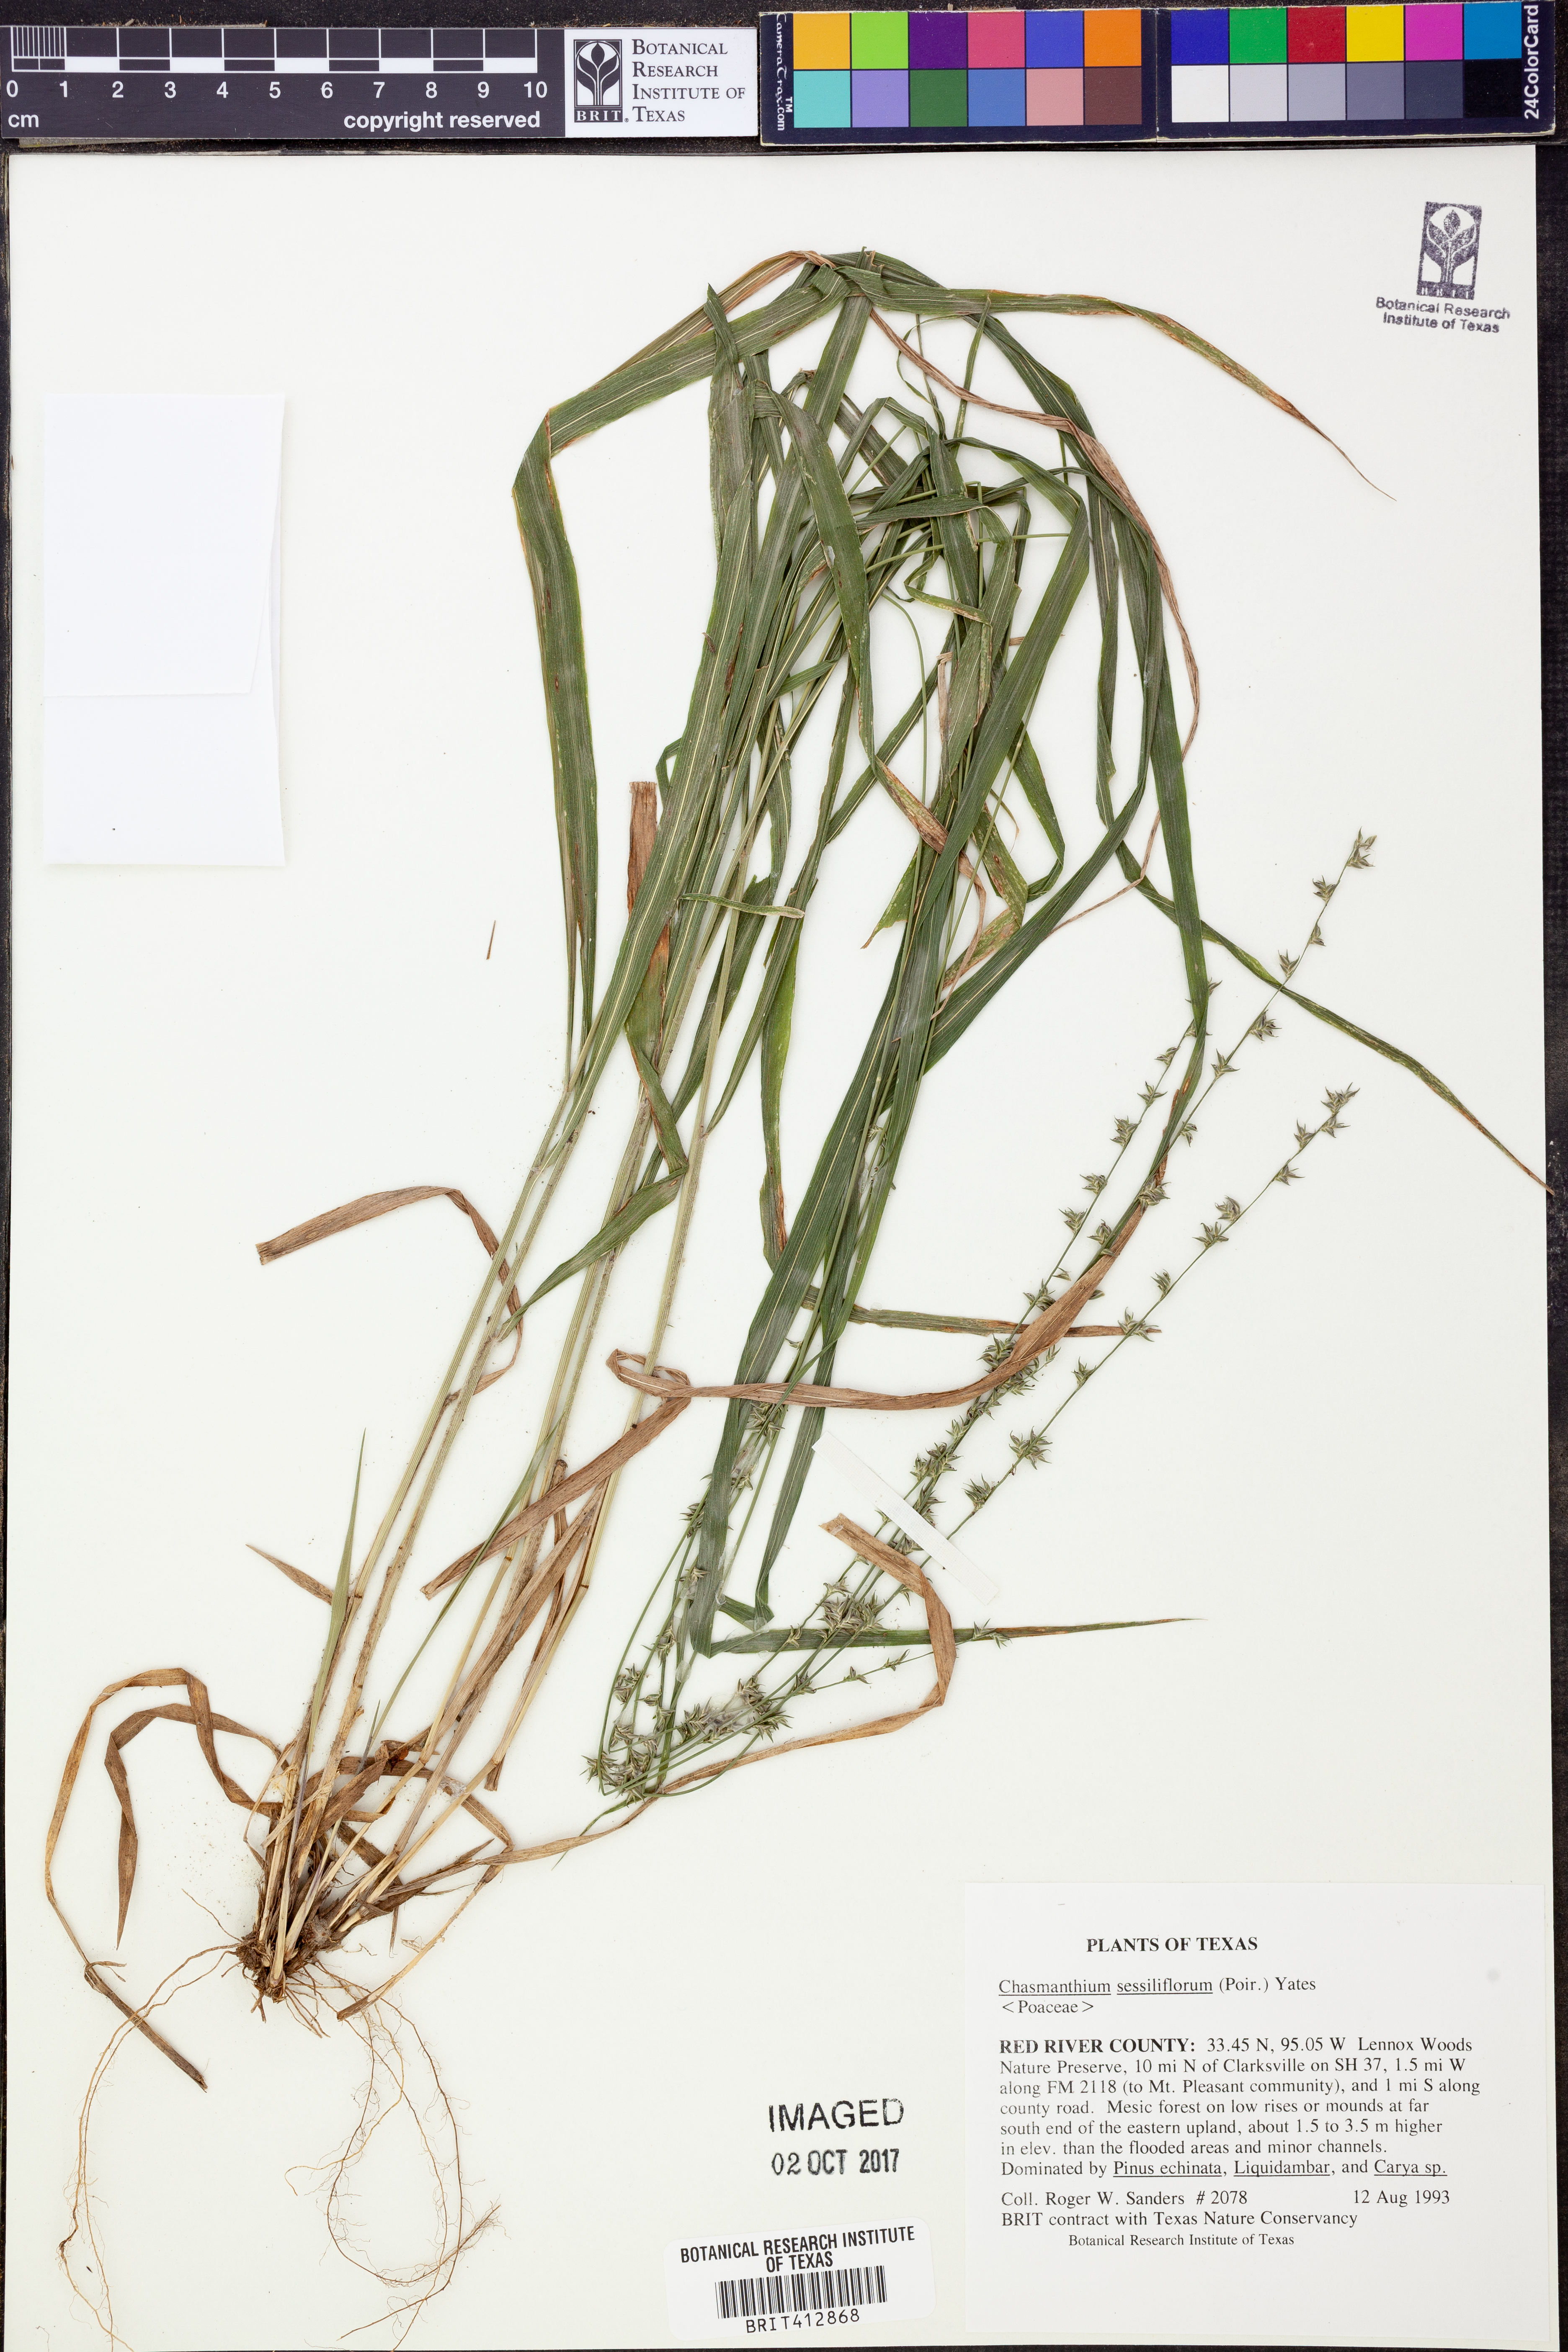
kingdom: Plantae
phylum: Tracheophyta
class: Liliopsida
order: Poales
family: Poaceae
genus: Chasmanthium
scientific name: Chasmanthium laxum
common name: Slender chasmanthium
